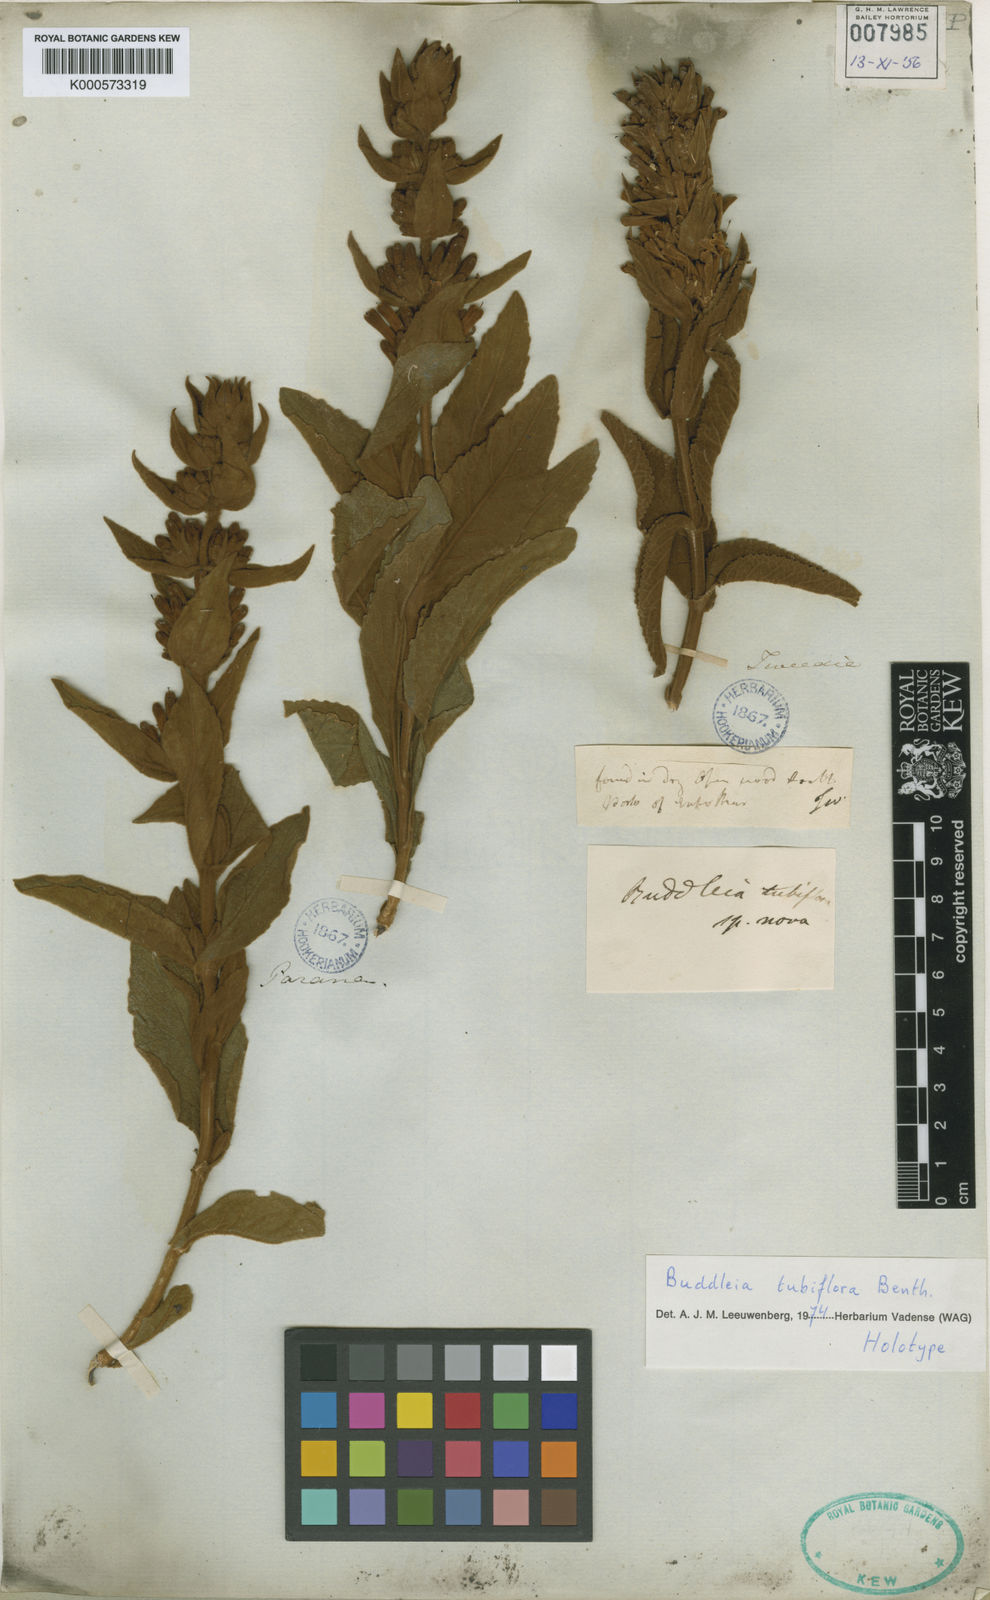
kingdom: Plantae
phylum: Tracheophyta
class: Magnoliopsida
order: Lamiales
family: Scrophulariaceae
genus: Buddleja
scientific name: Buddleja tubiflora
